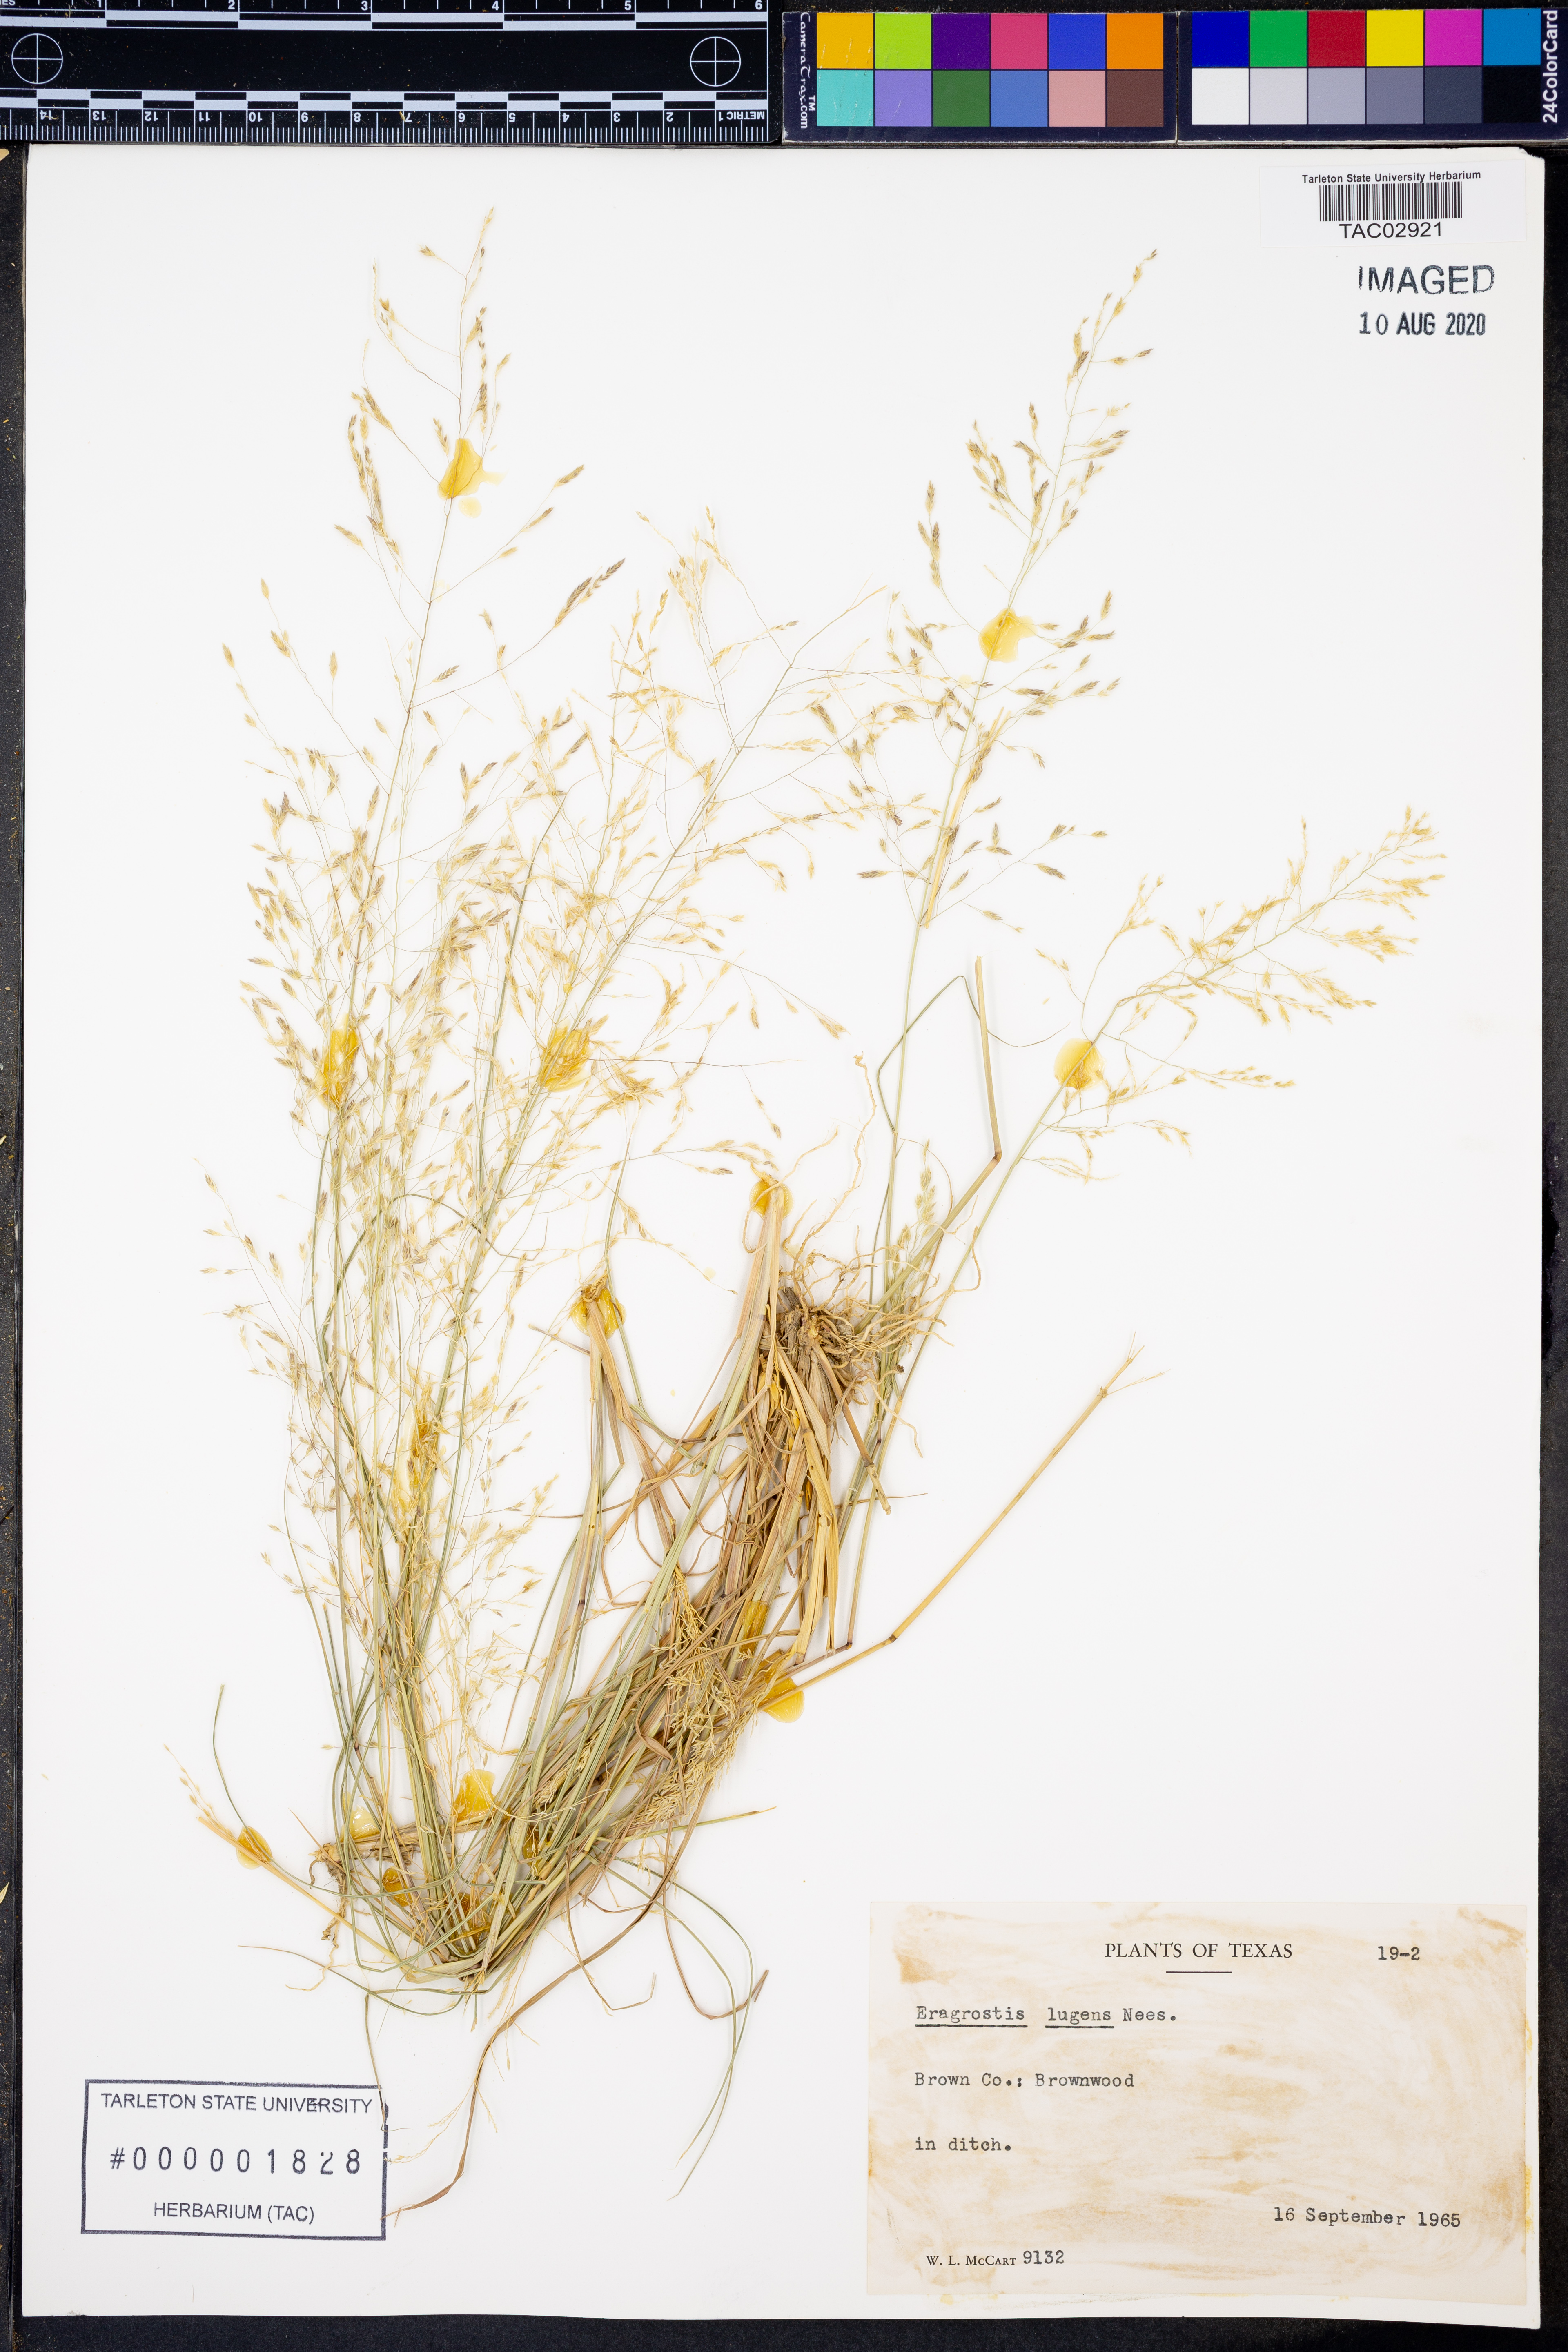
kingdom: Plantae
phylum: Tracheophyta
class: Liliopsida
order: Poales
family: Poaceae
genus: Eragrostis
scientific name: Eragrostis capillaris
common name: Hair-like lovegrass
